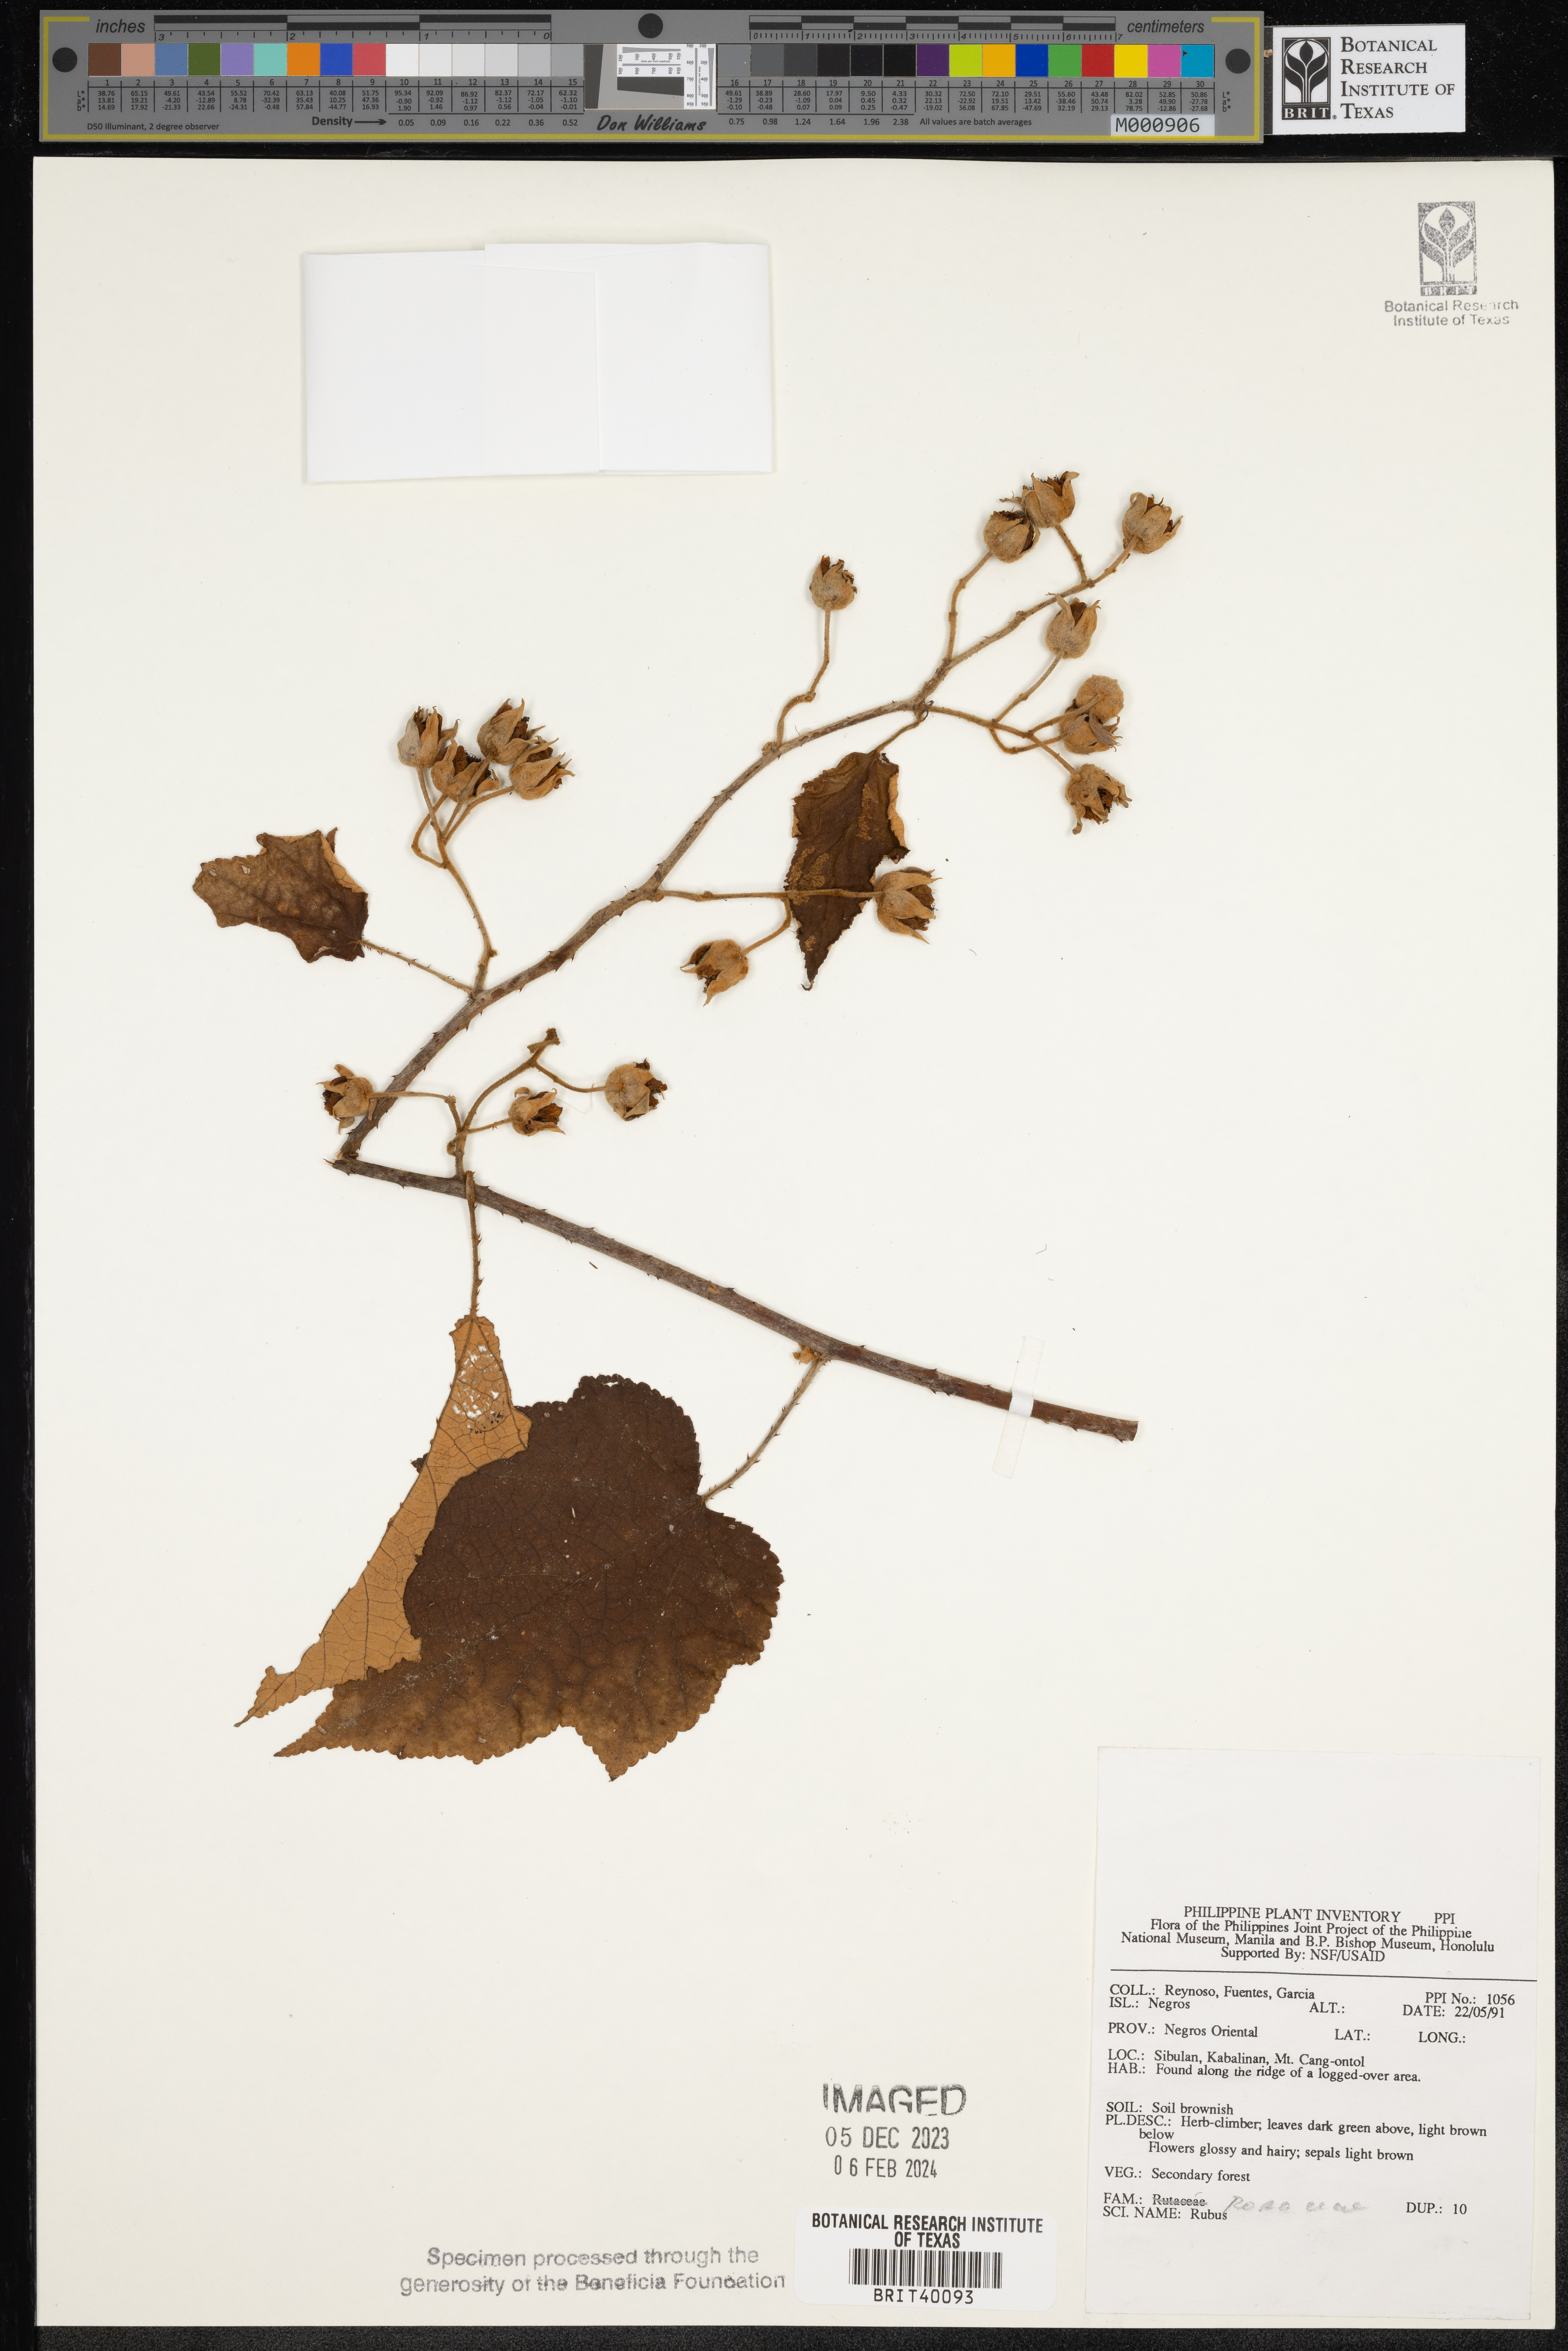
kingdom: Plantae
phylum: Tracheophyta
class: Magnoliopsida
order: Rosales
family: Rosaceae
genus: Rubus
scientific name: Rubus
